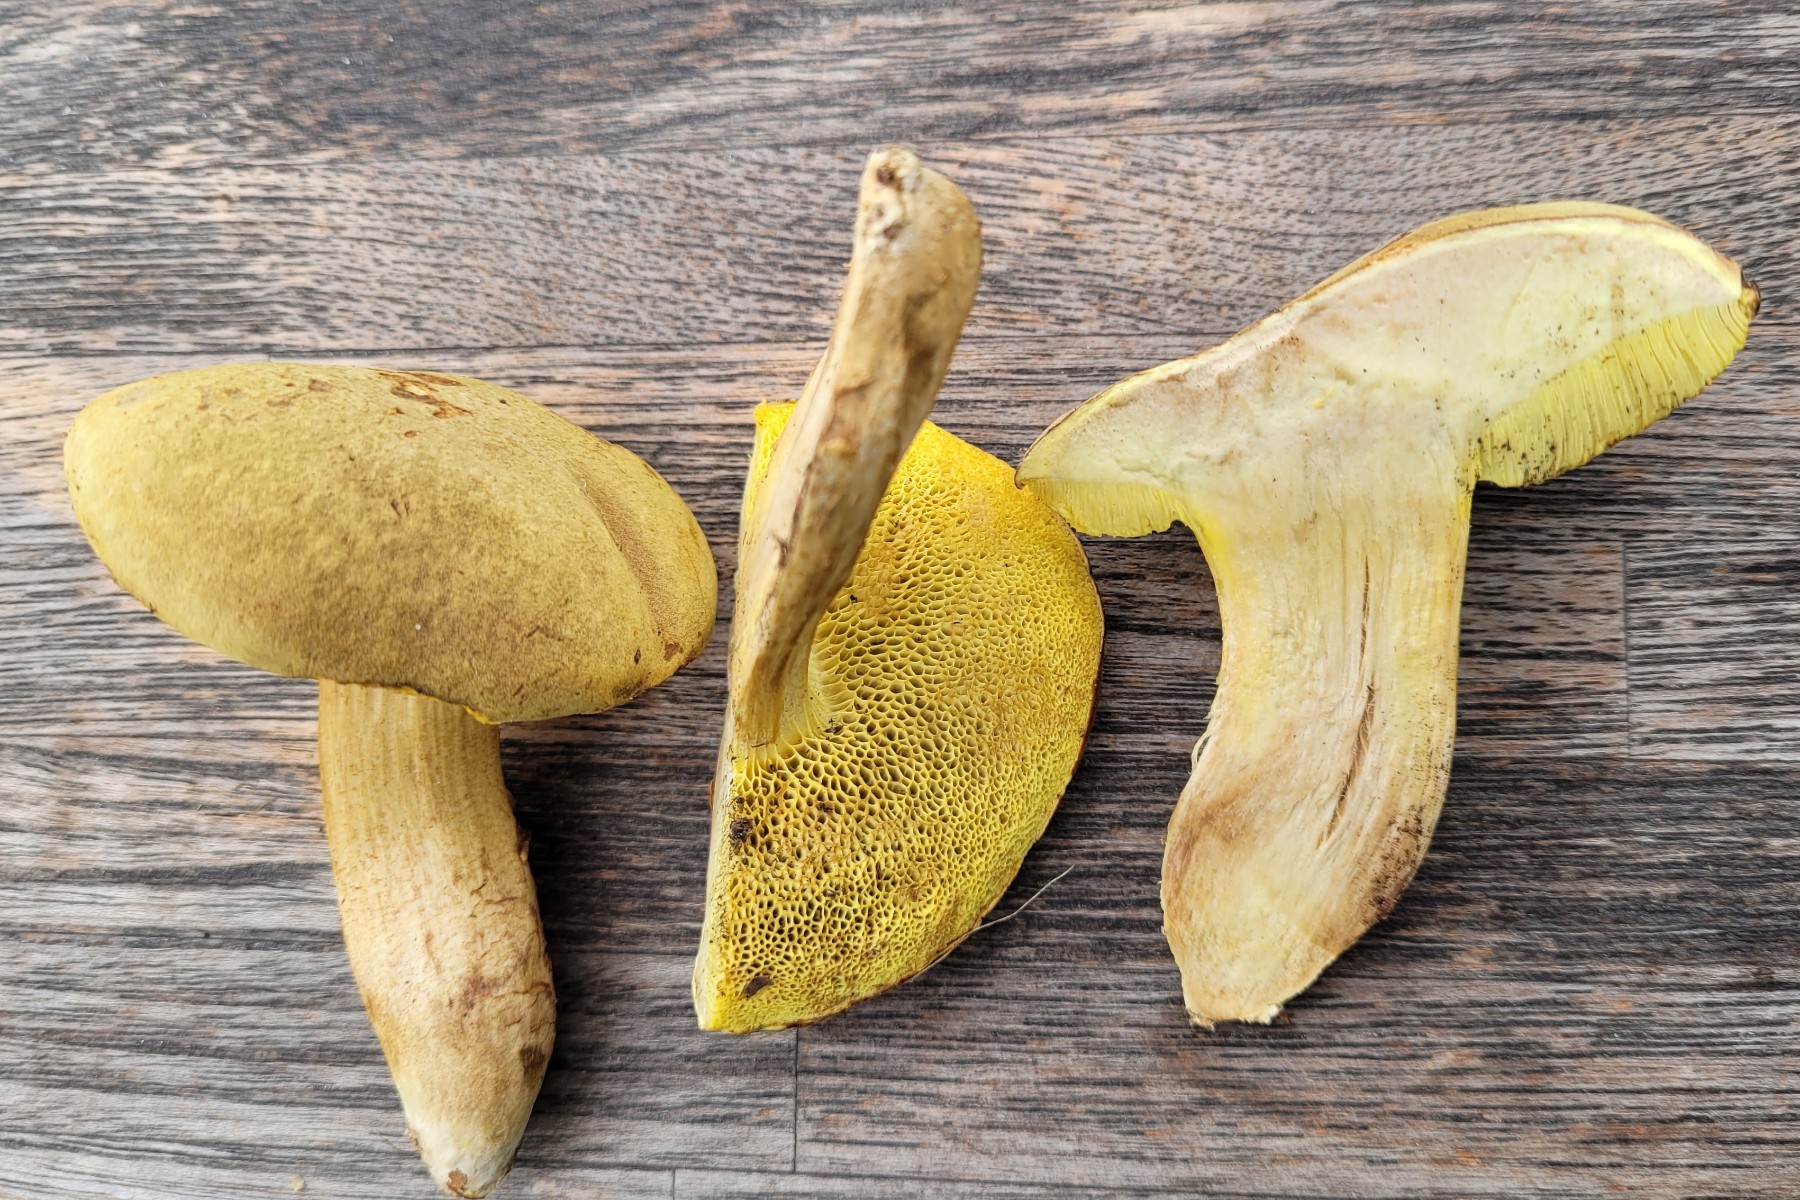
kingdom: Fungi
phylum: Basidiomycota
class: Agaricomycetes
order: Boletales
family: Boletaceae
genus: Xerocomus
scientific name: Xerocomus subtomentosus
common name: filtet rørhat
